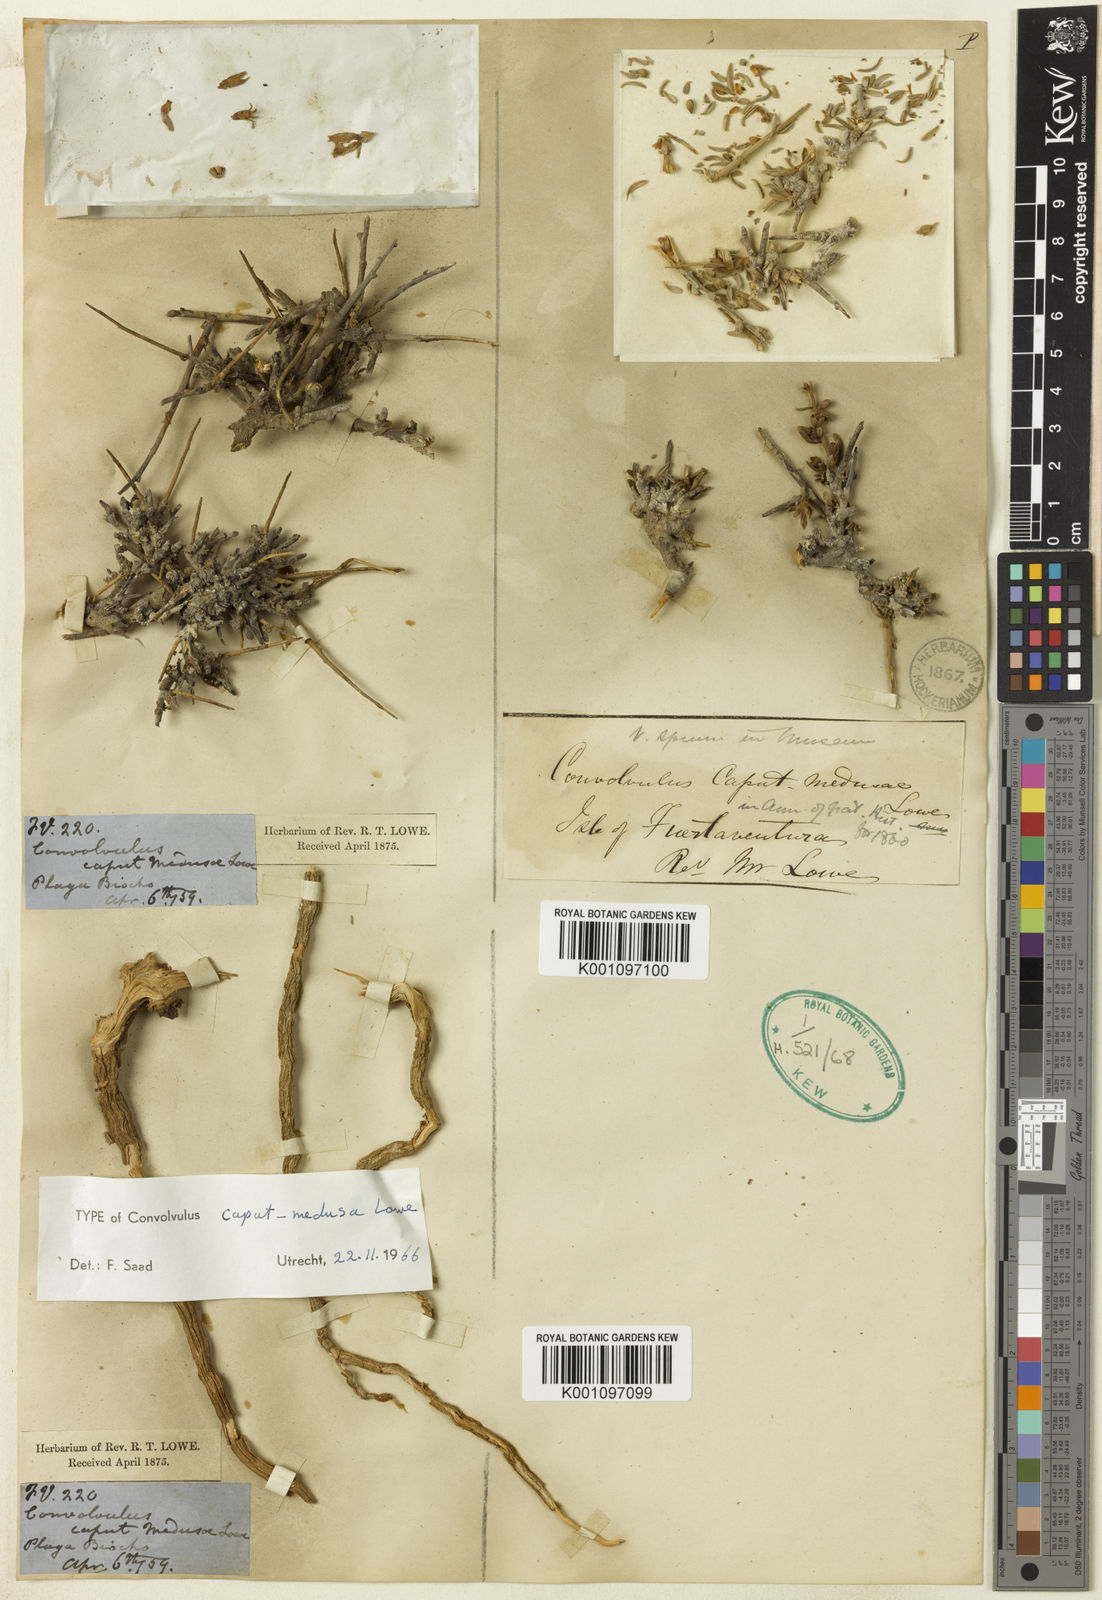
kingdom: Plantae
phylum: Tracheophyta
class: Magnoliopsida
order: Solanales
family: Convolvulaceae
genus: Convolvulus
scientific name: Convolvulus caput-medusae
